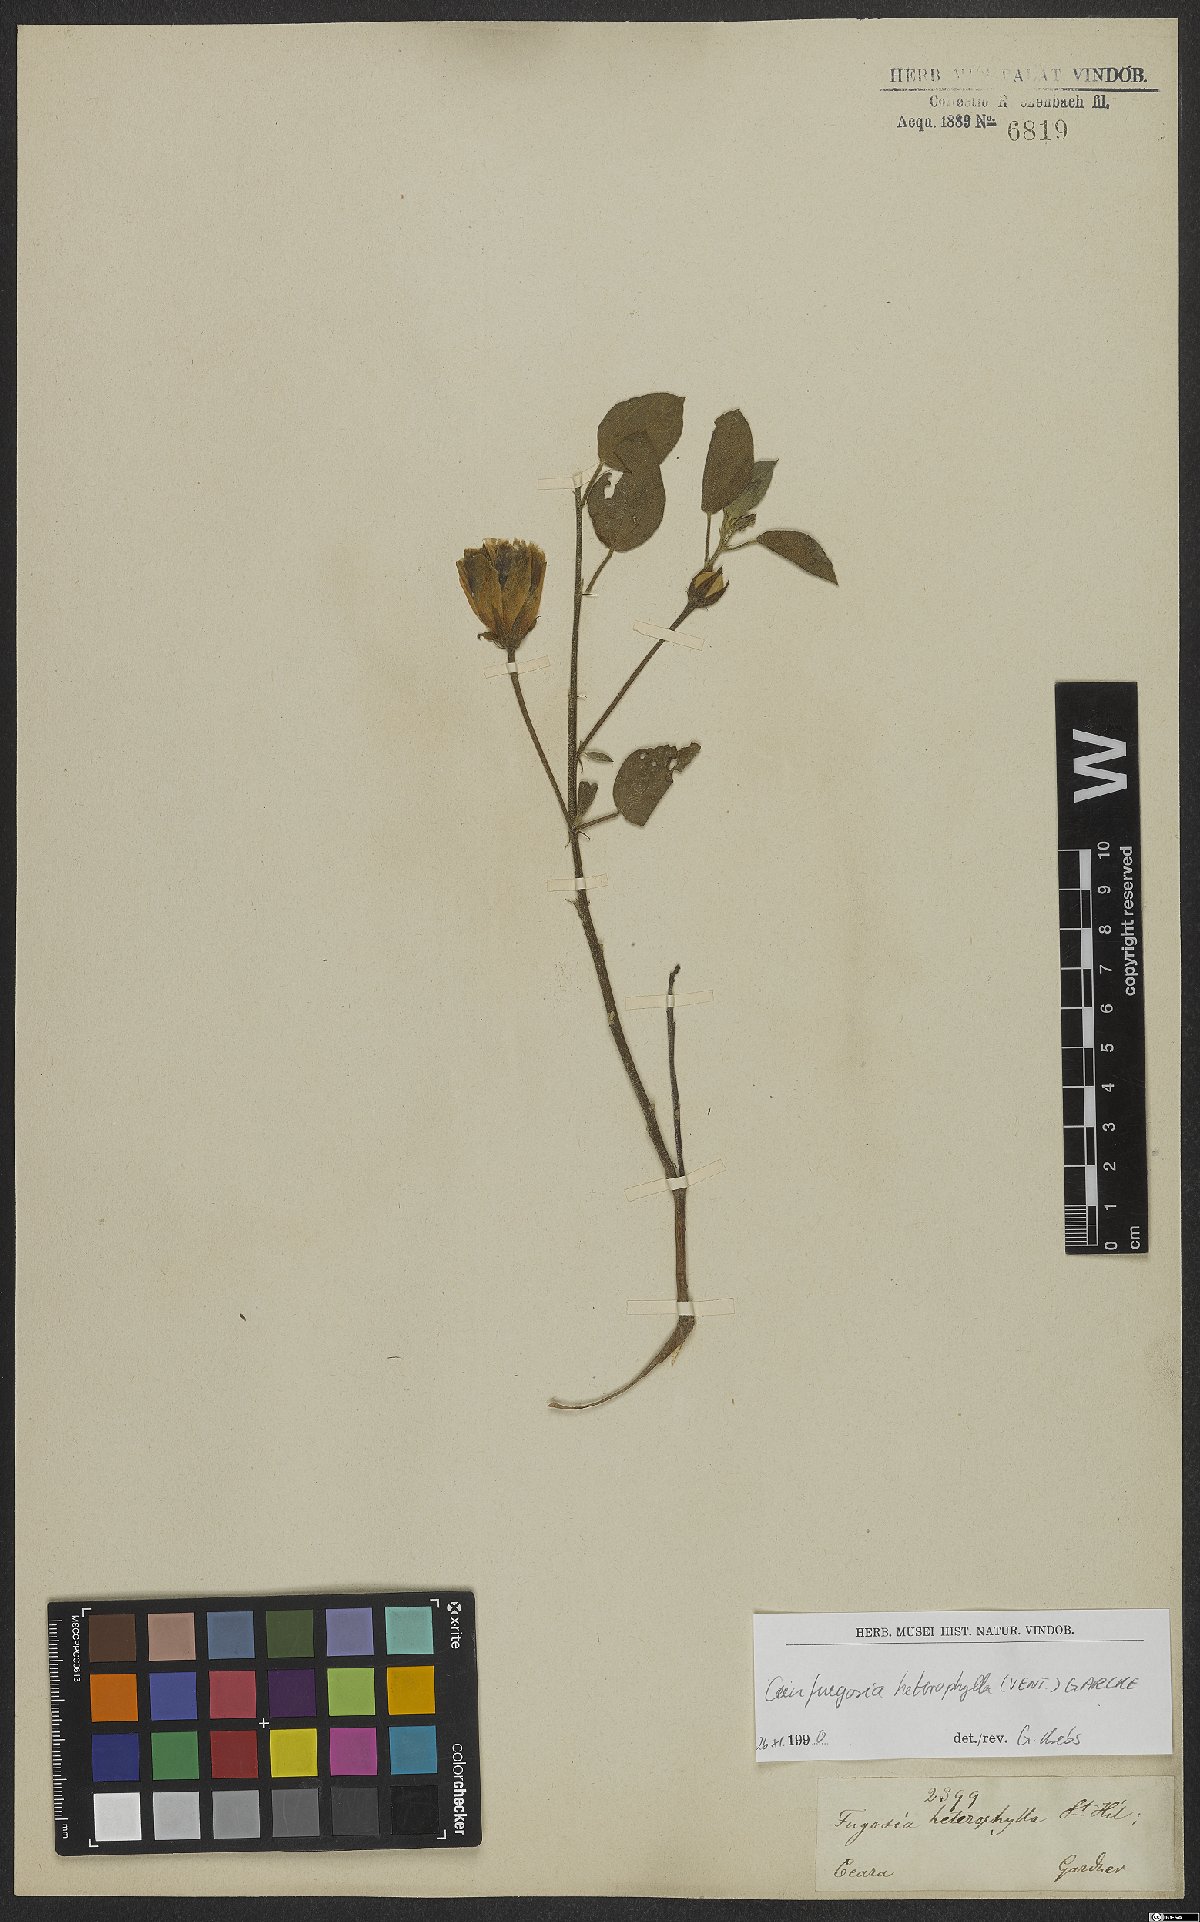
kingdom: Plantae
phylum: Tracheophyta
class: Magnoliopsida
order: Malvales
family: Malvaceae
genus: Cienfuegosia
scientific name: Cienfuegosia heterophylla
